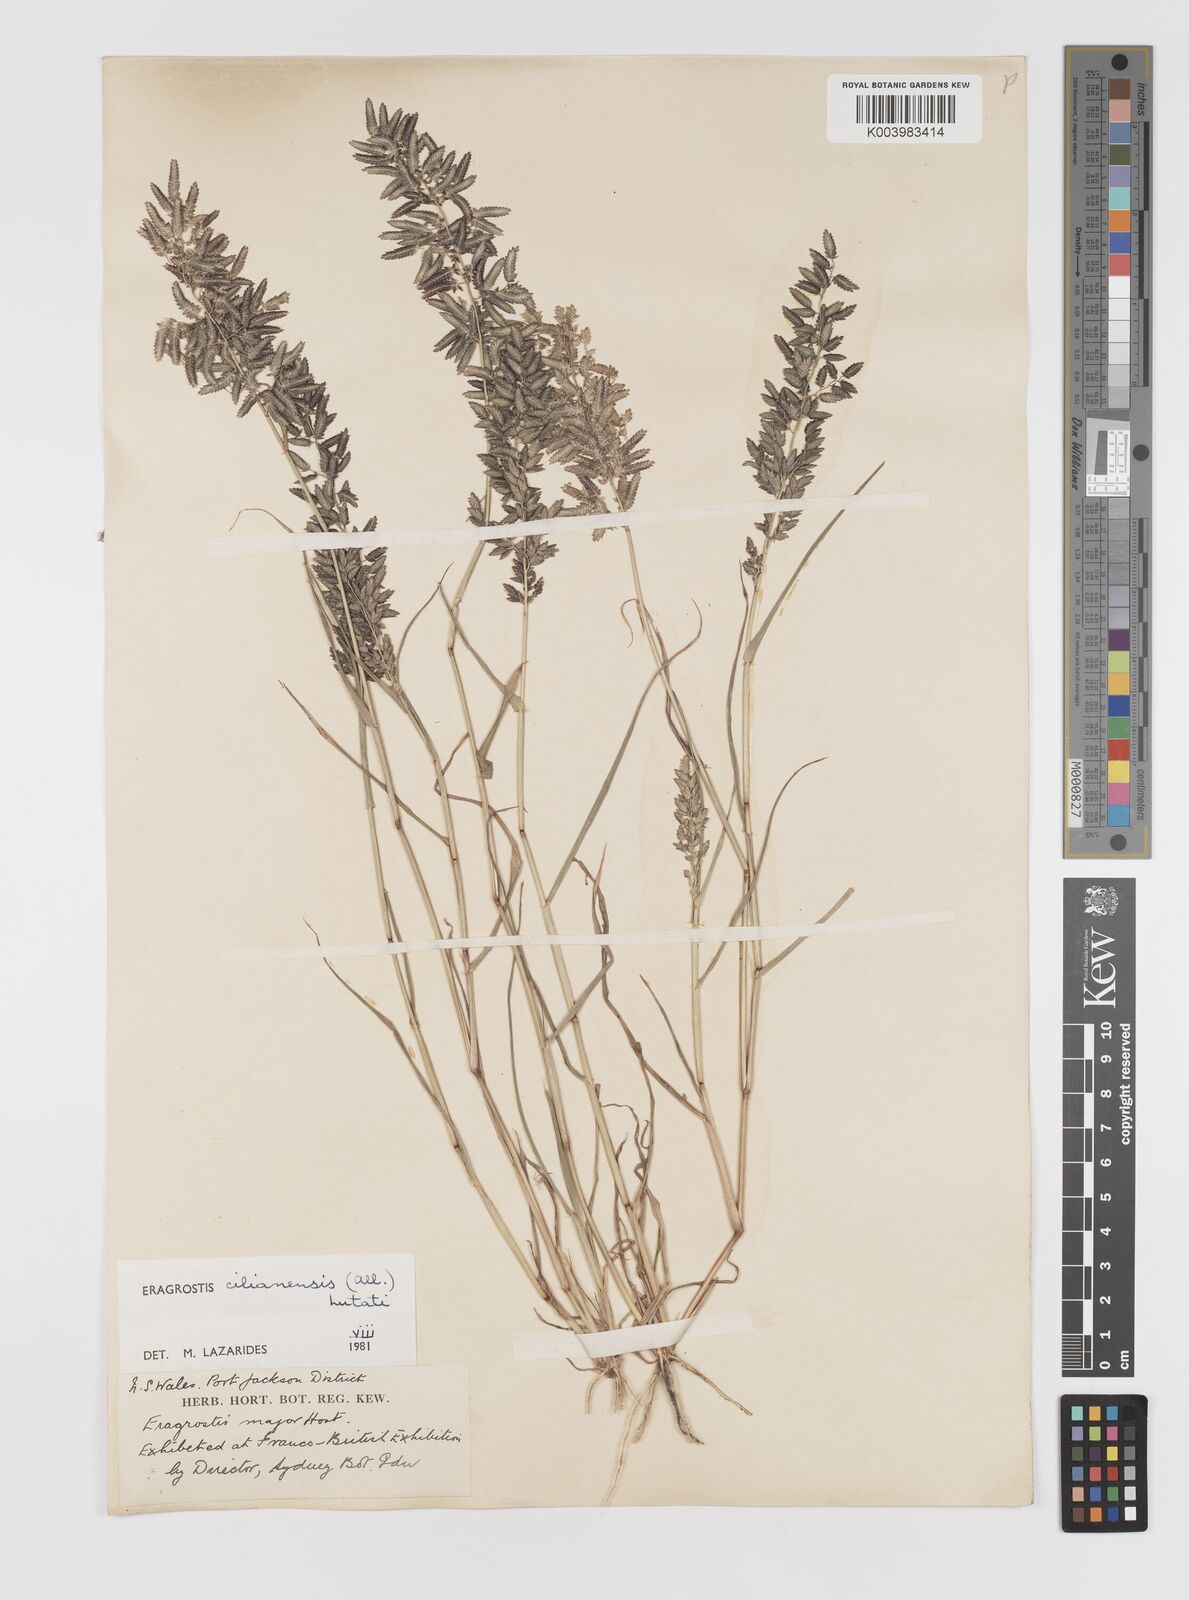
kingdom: Plantae
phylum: Tracheophyta
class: Liliopsida
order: Poales
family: Poaceae
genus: Eragrostis
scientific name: Eragrostis cilianensis
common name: Stinkgrass
